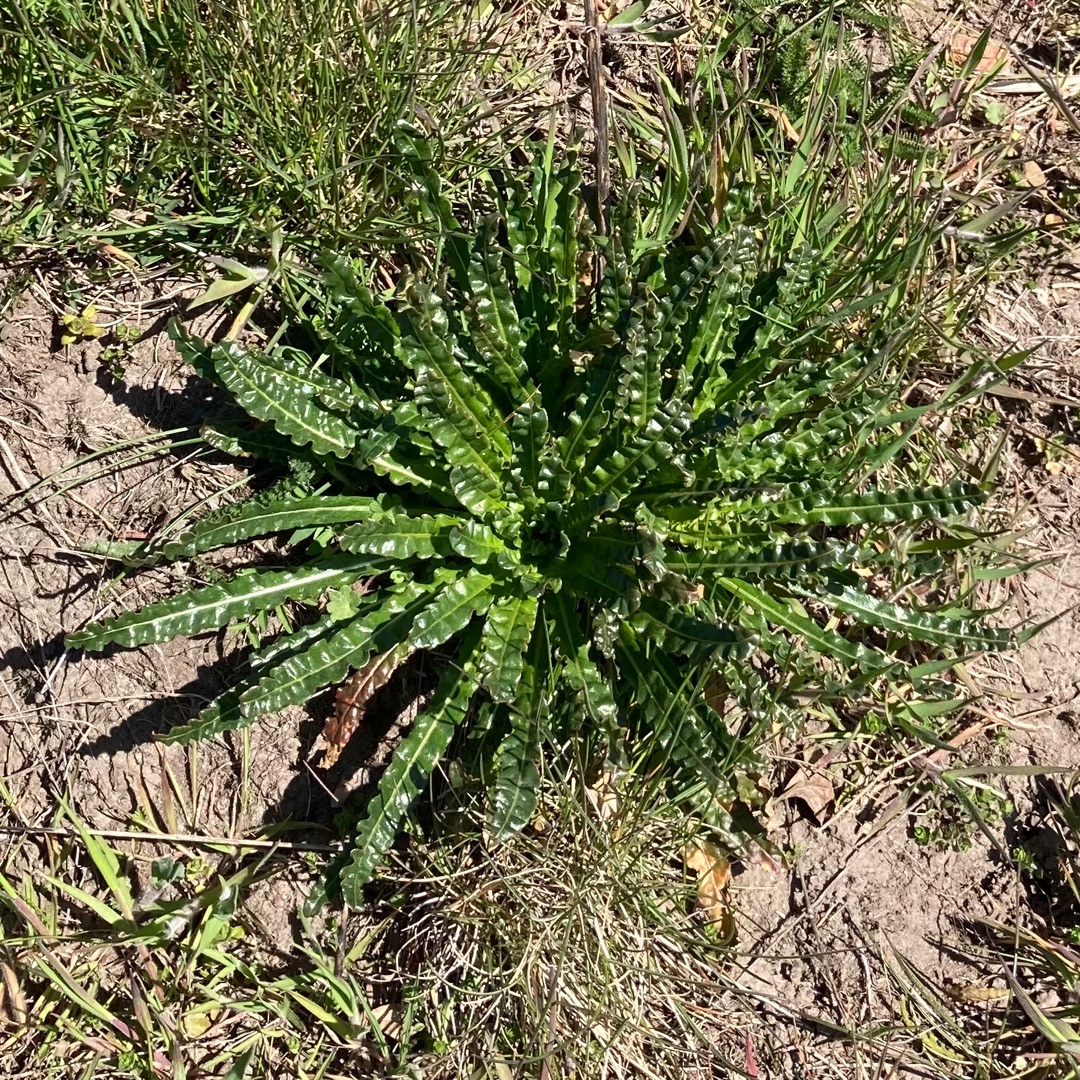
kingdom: Plantae
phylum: Tracheophyta
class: Magnoliopsida
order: Brassicales
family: Resedaceae
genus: Reseda
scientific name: Reseda luteola
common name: Farve-reseda
